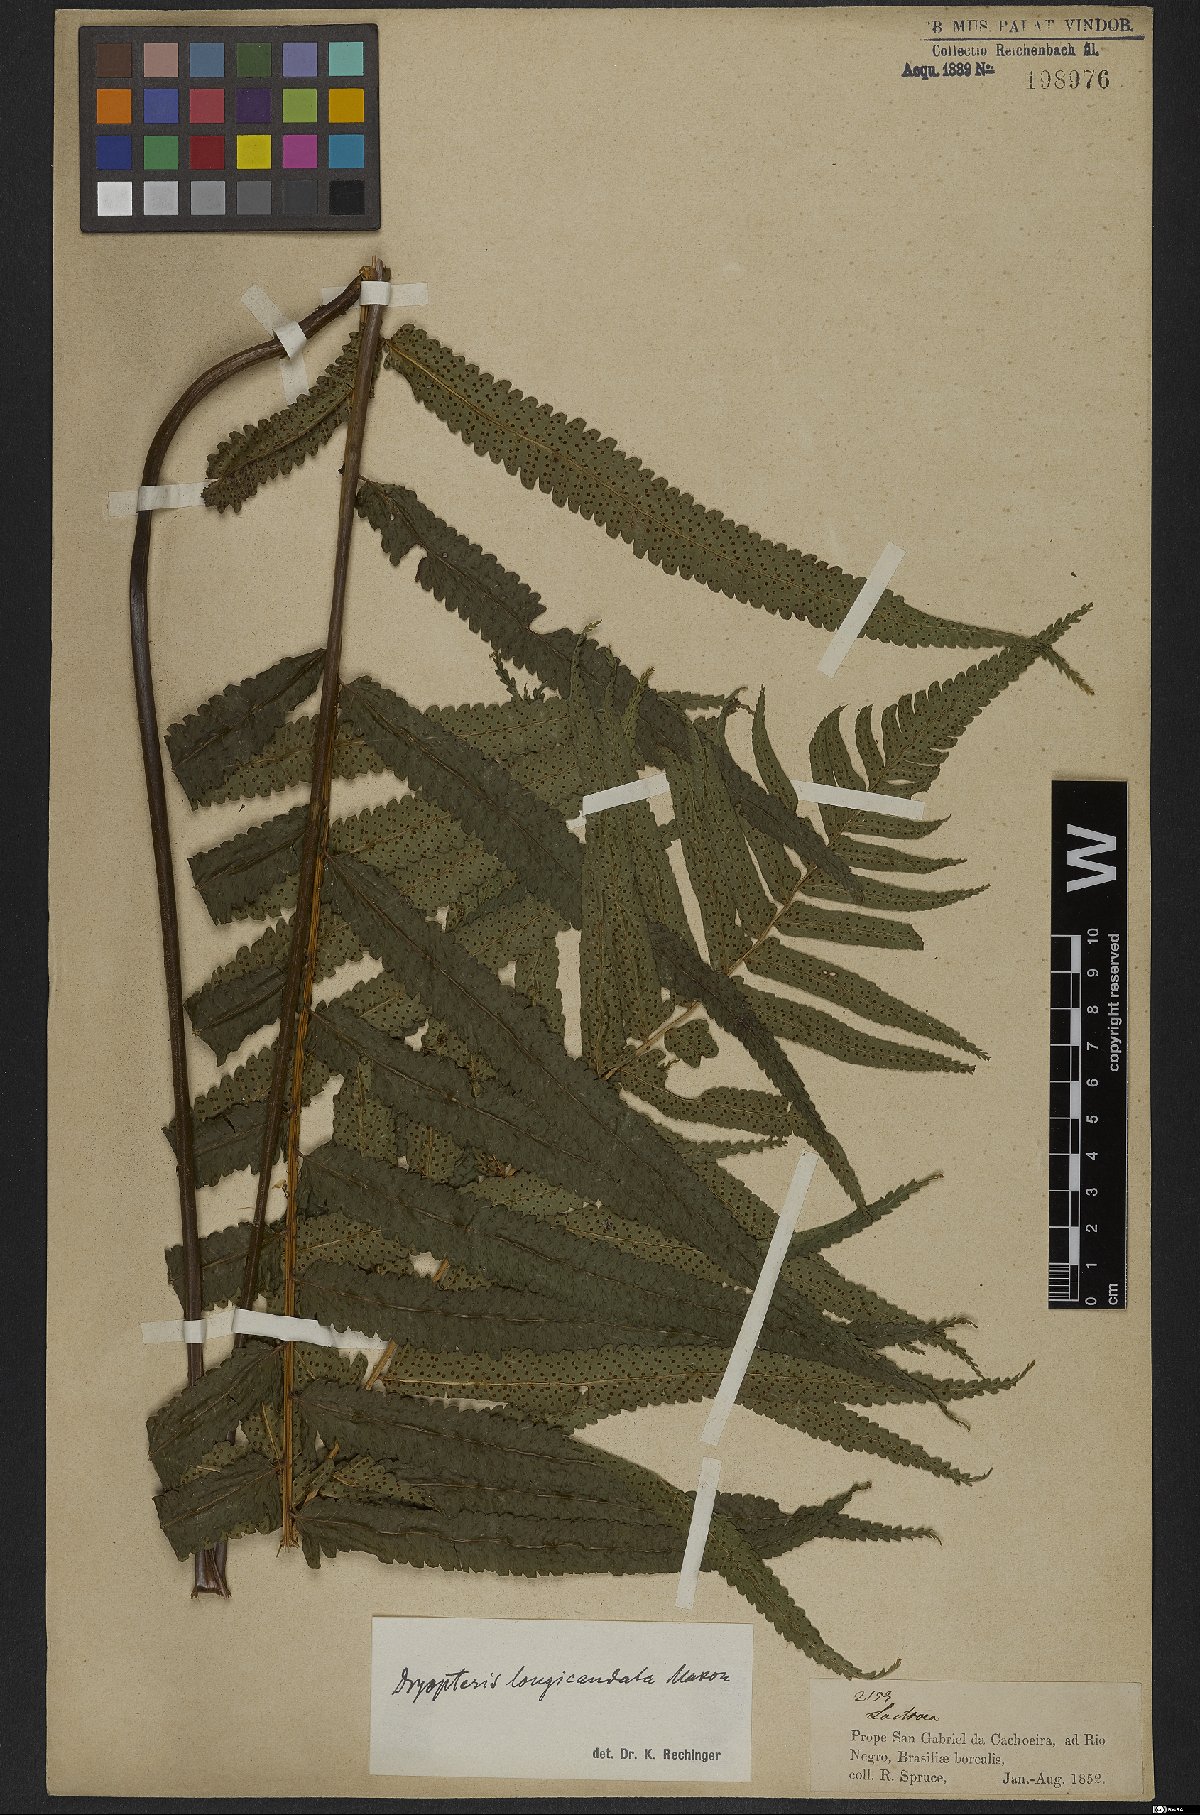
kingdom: Plantae
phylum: Tracheophyta
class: Polypodiopsida
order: Polypodiales
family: Dryopteridaceae
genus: Stigmatopteris
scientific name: Stigmatopteris longicaudata
